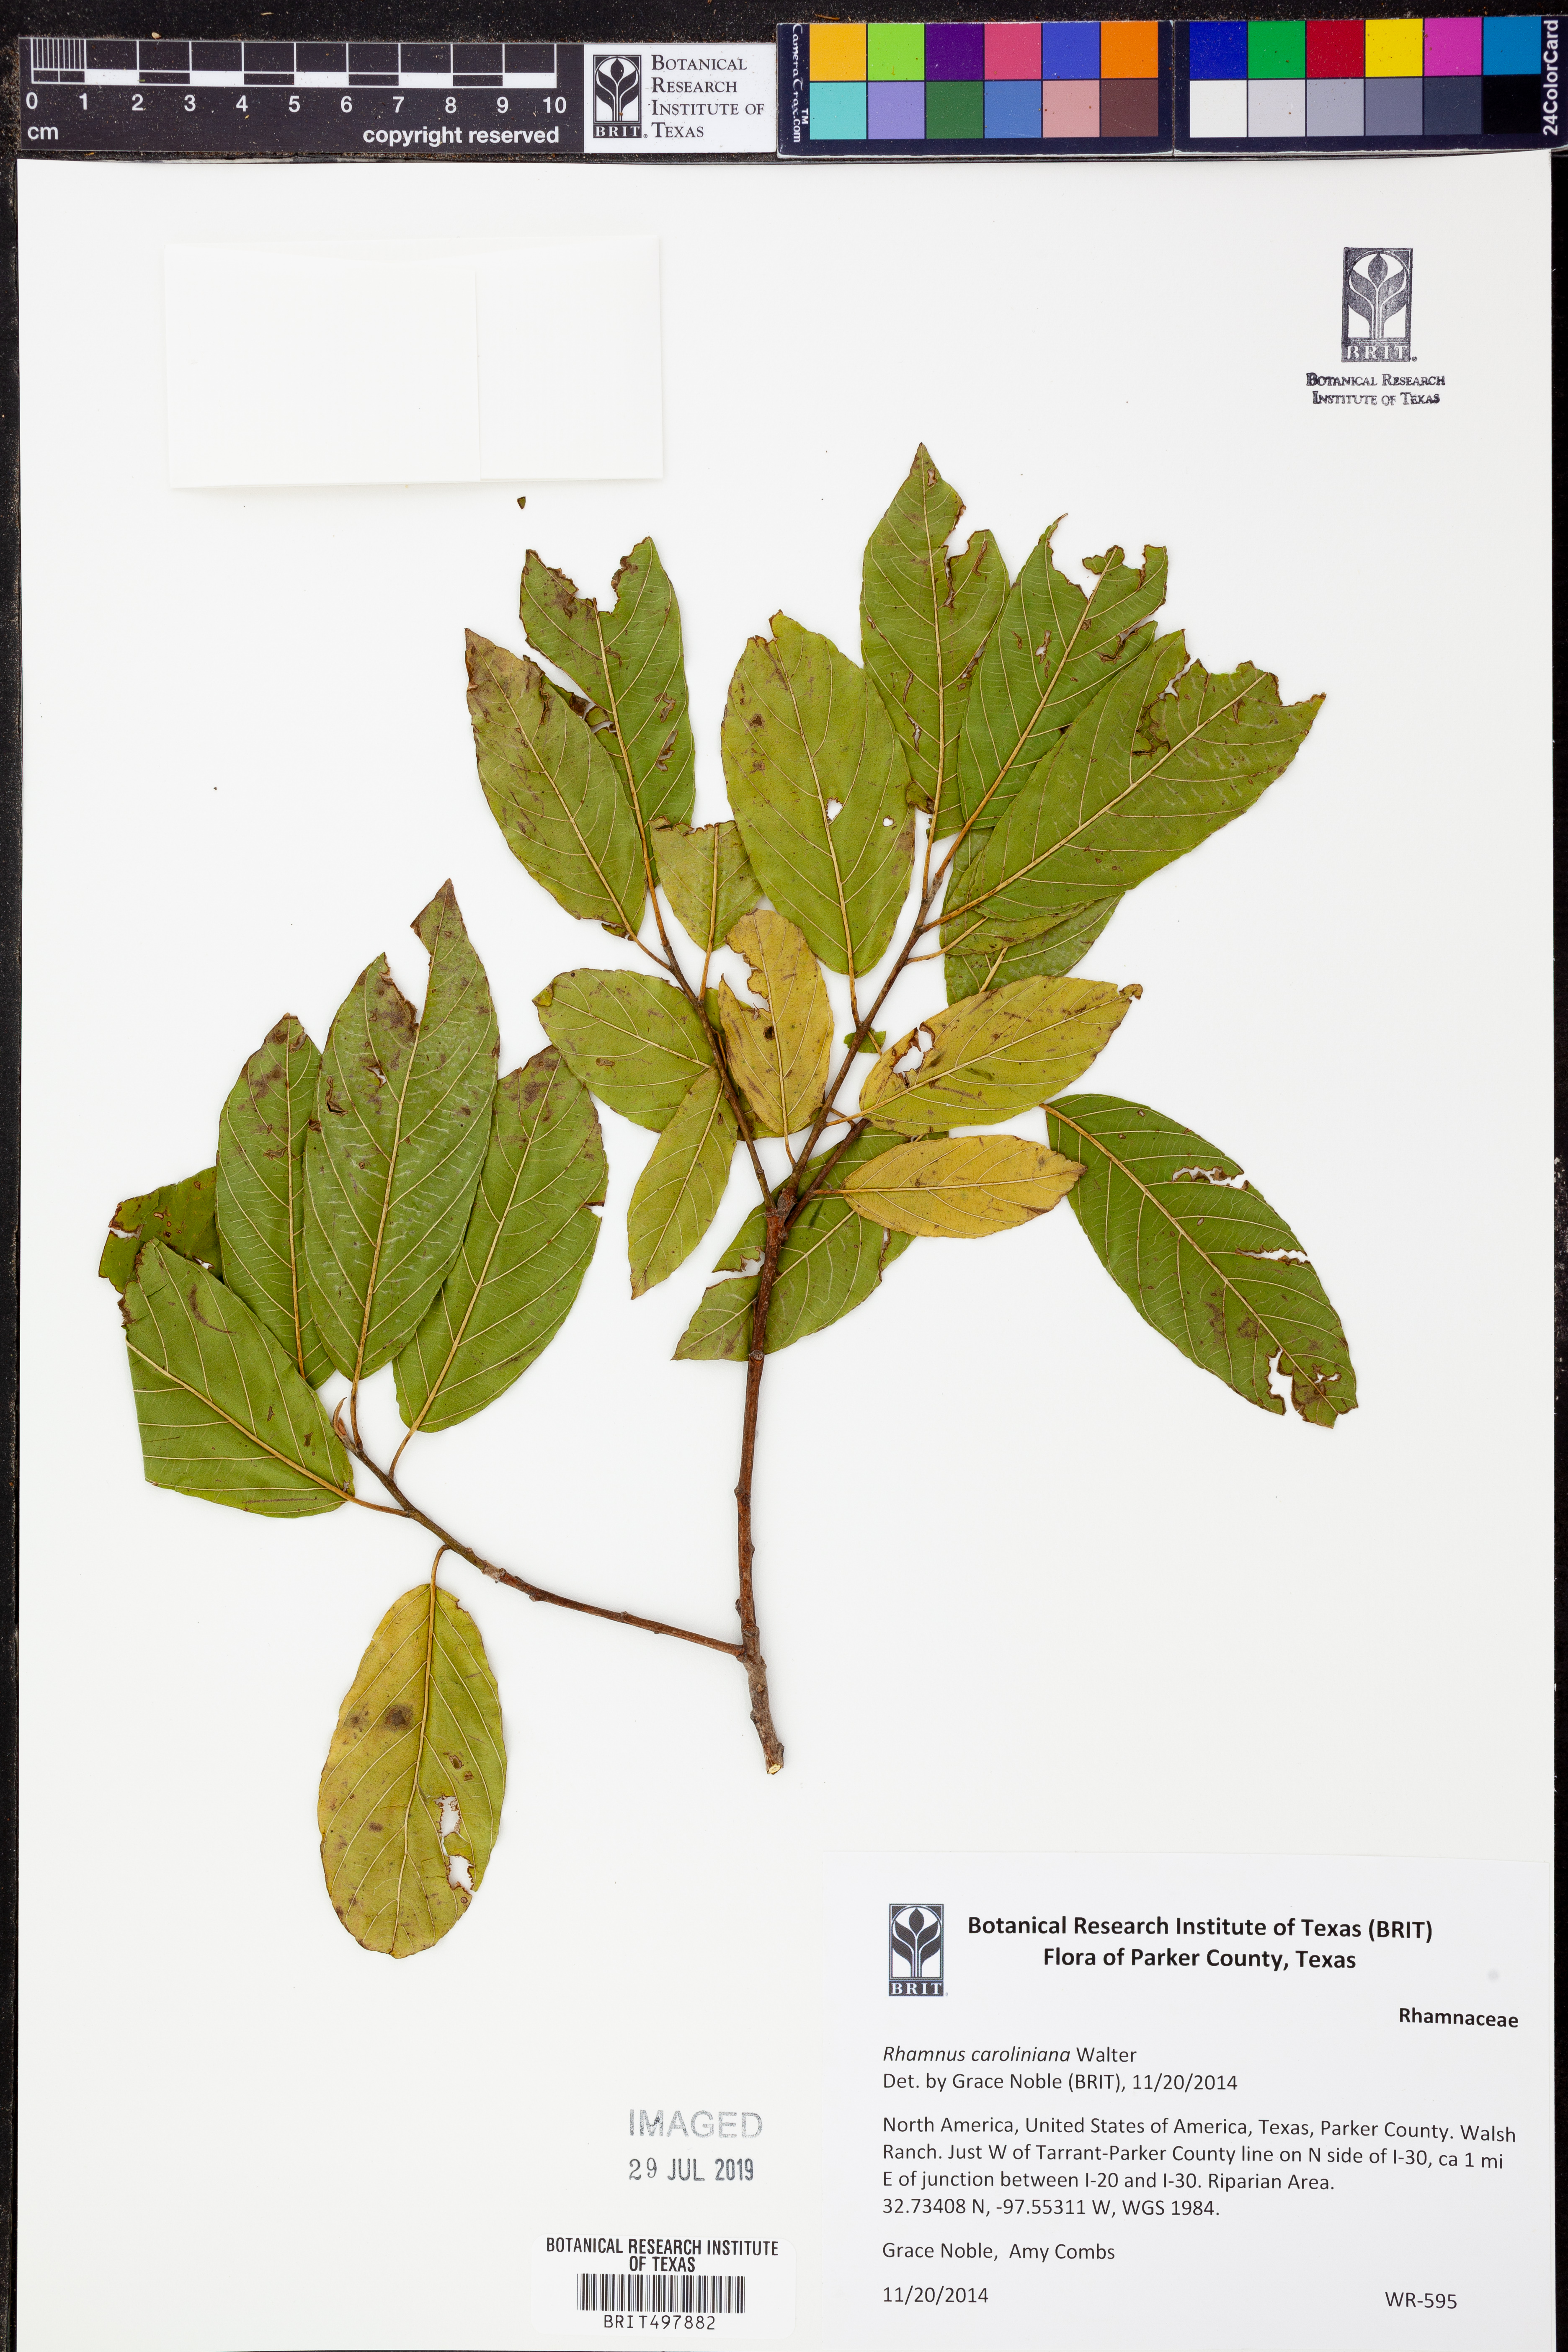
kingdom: Plantae
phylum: Tracheophyta
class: Magnoliopsida
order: Rosales
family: Rhamnaceae
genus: Frangula
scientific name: Frangula caroliniana
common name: Carolina buckthorn
